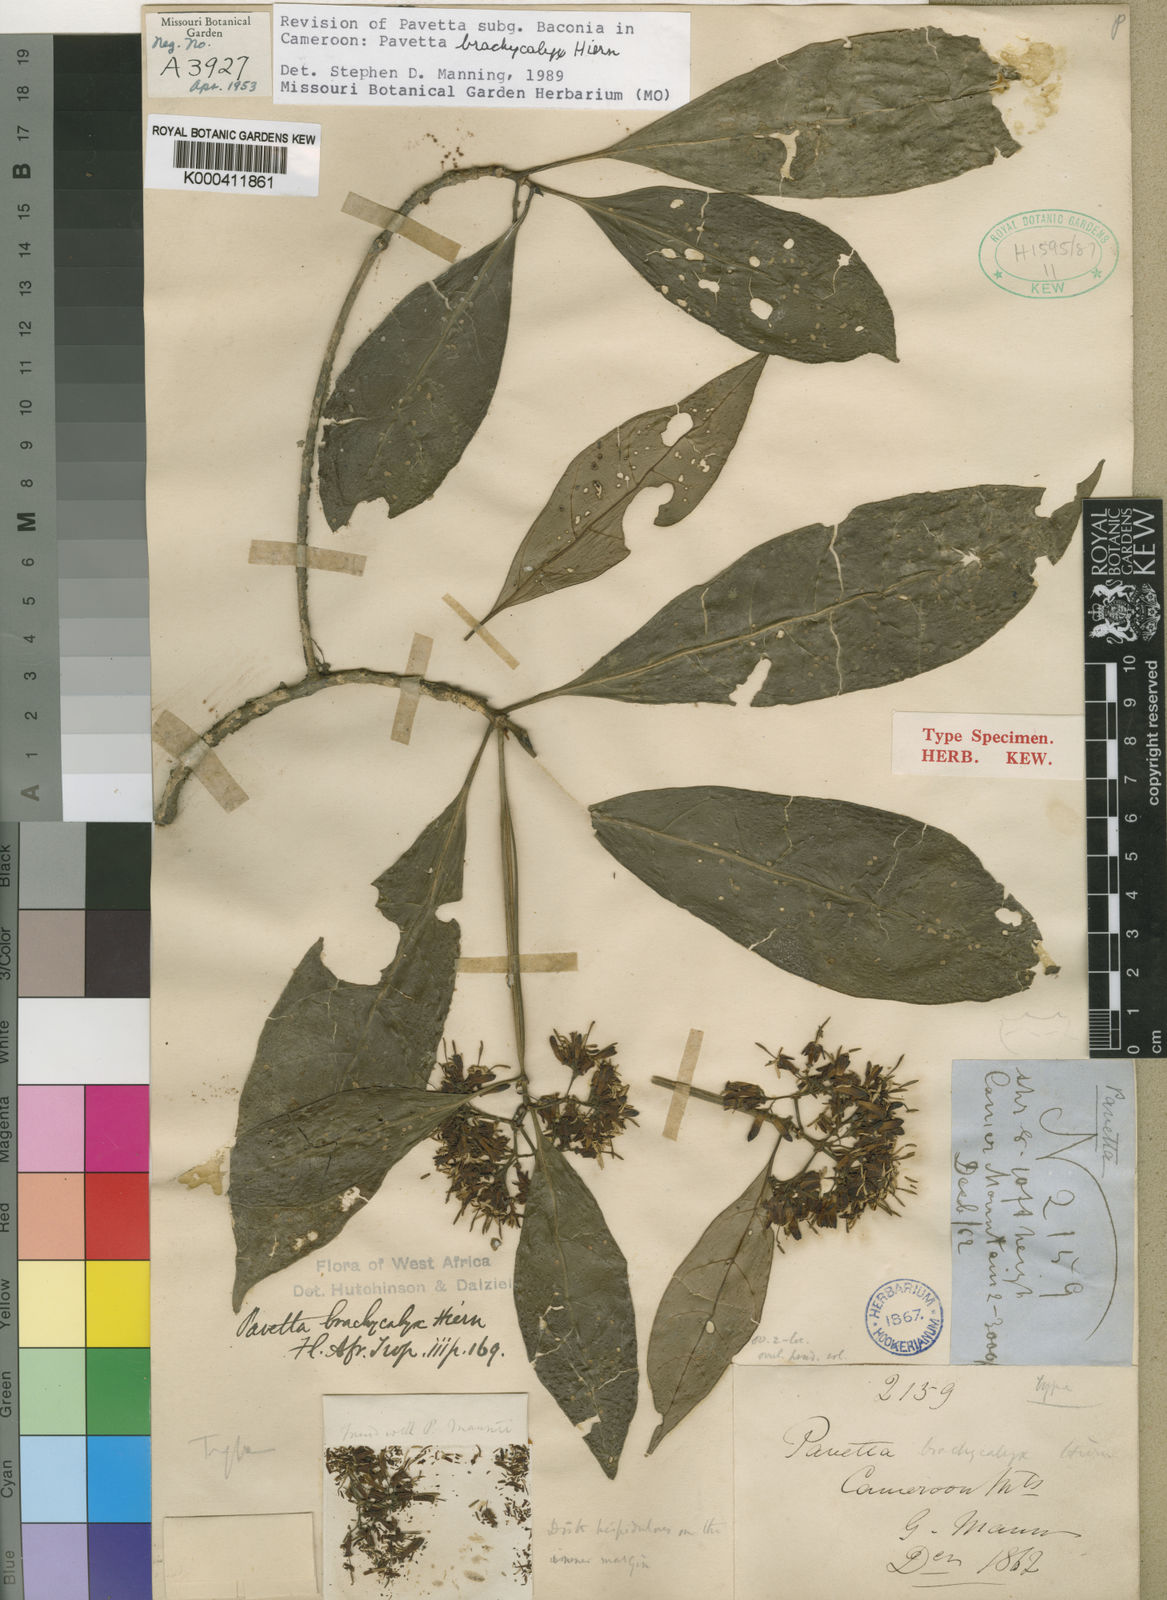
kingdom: Plantae
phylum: Tracheophyta
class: Magnoliopsida
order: Gentianales
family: Rubiaceae
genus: Pavetta
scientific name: Pavetta brachycalyx
